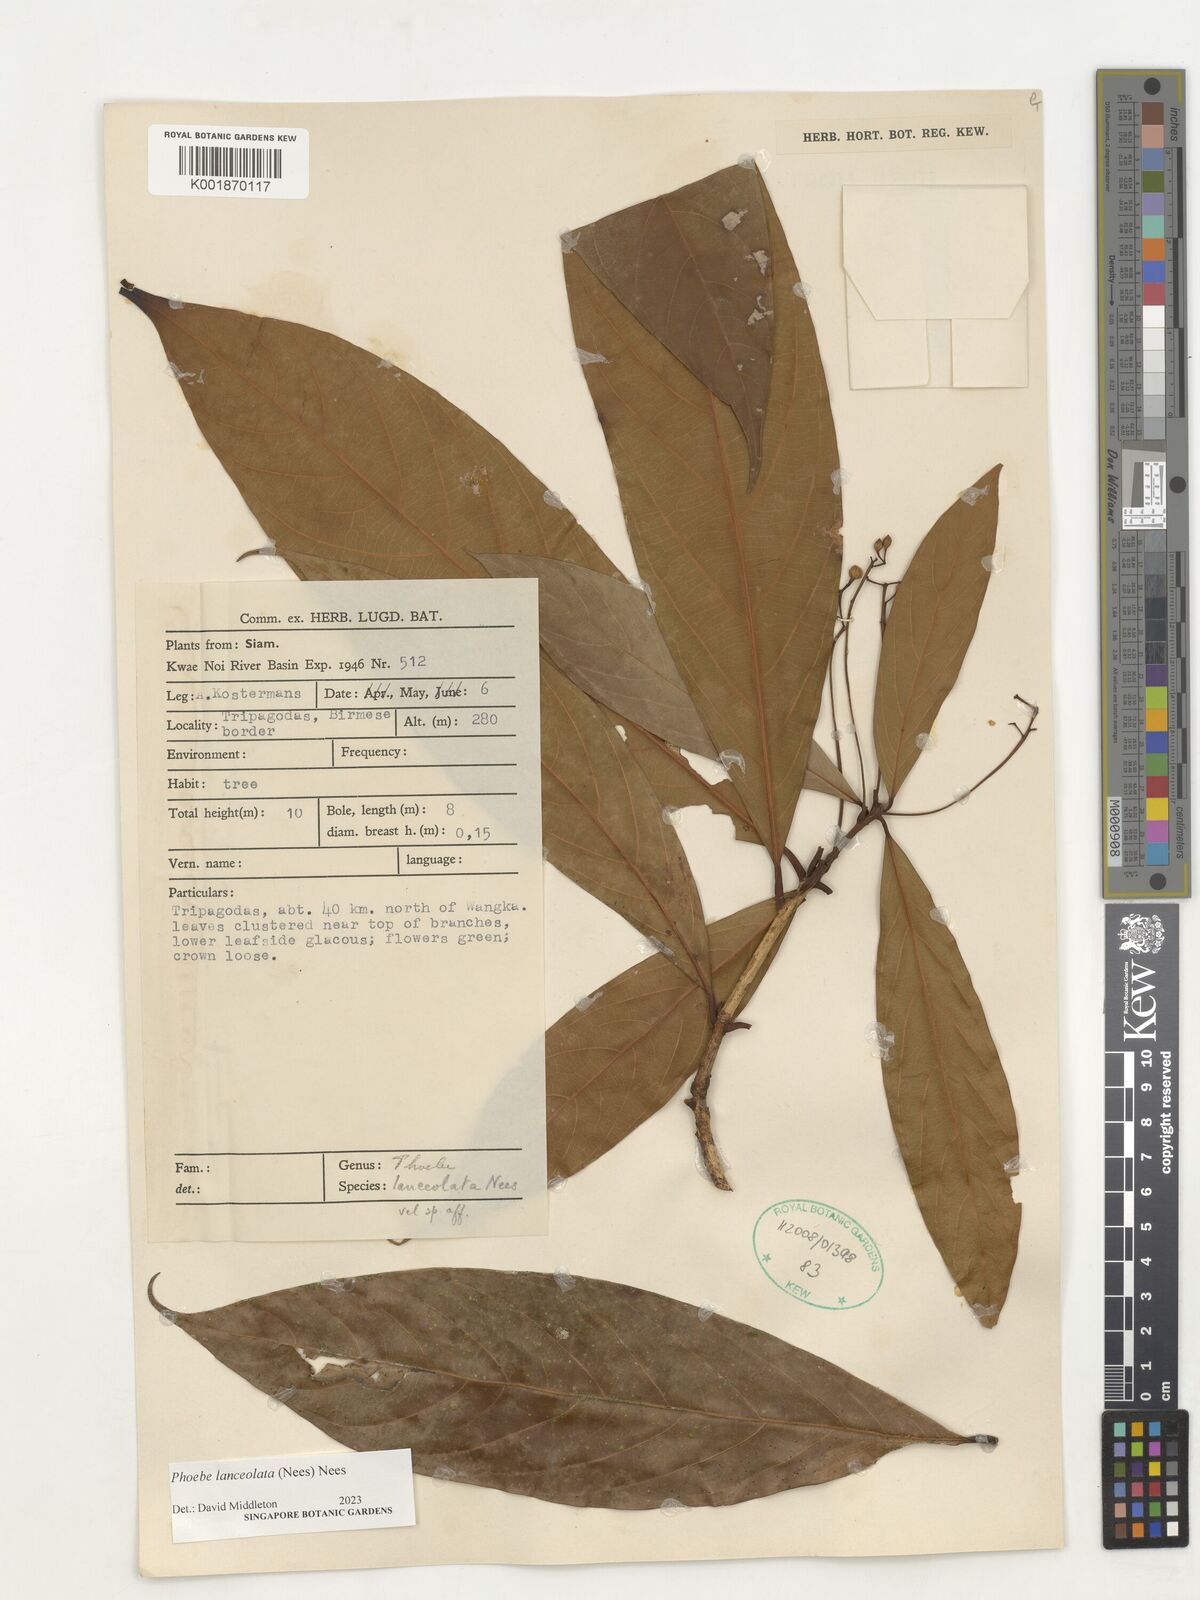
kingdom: Plantae
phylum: Tracheophyta
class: Magnoliopsida
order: Laurales
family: Lauraceae
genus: Phoebe
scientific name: Phoebe lanceolata
